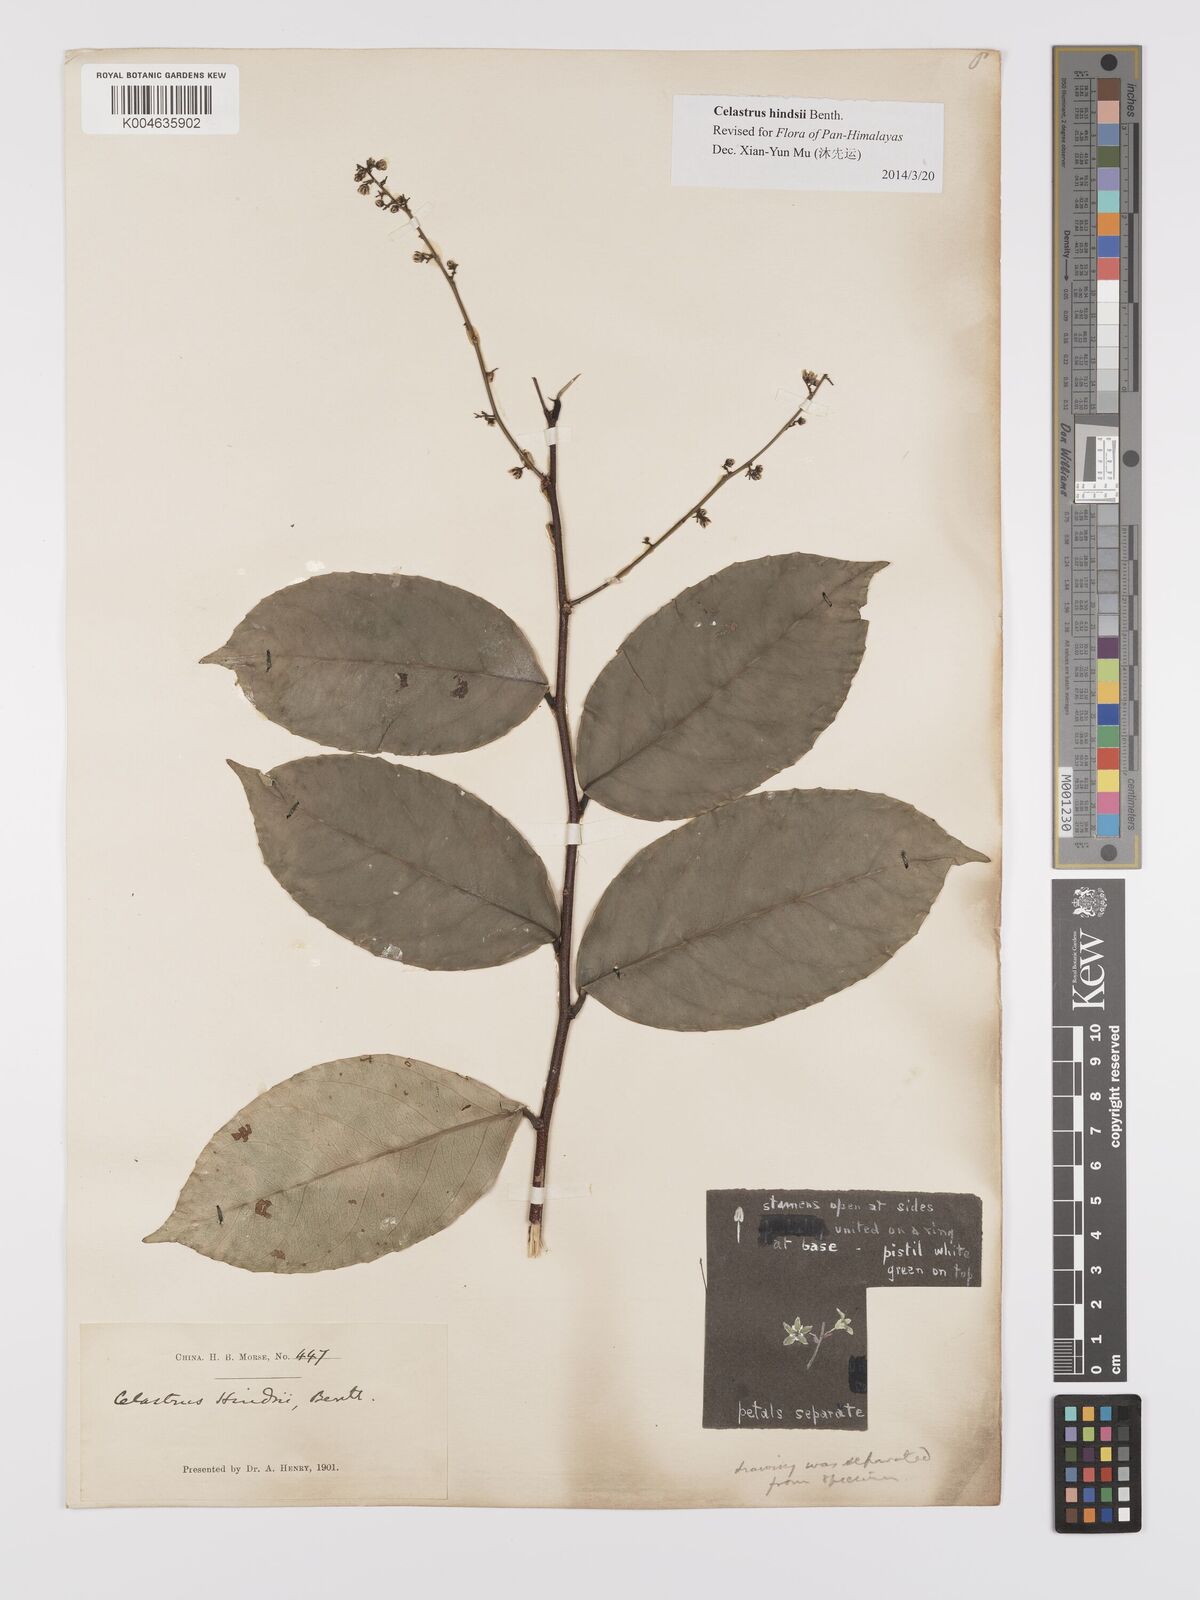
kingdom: Plantae
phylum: Tracheophyta
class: Magnoliopsida
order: Celastrales
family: Celastraceae
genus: Celastrus
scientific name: Celastrus hindsii
